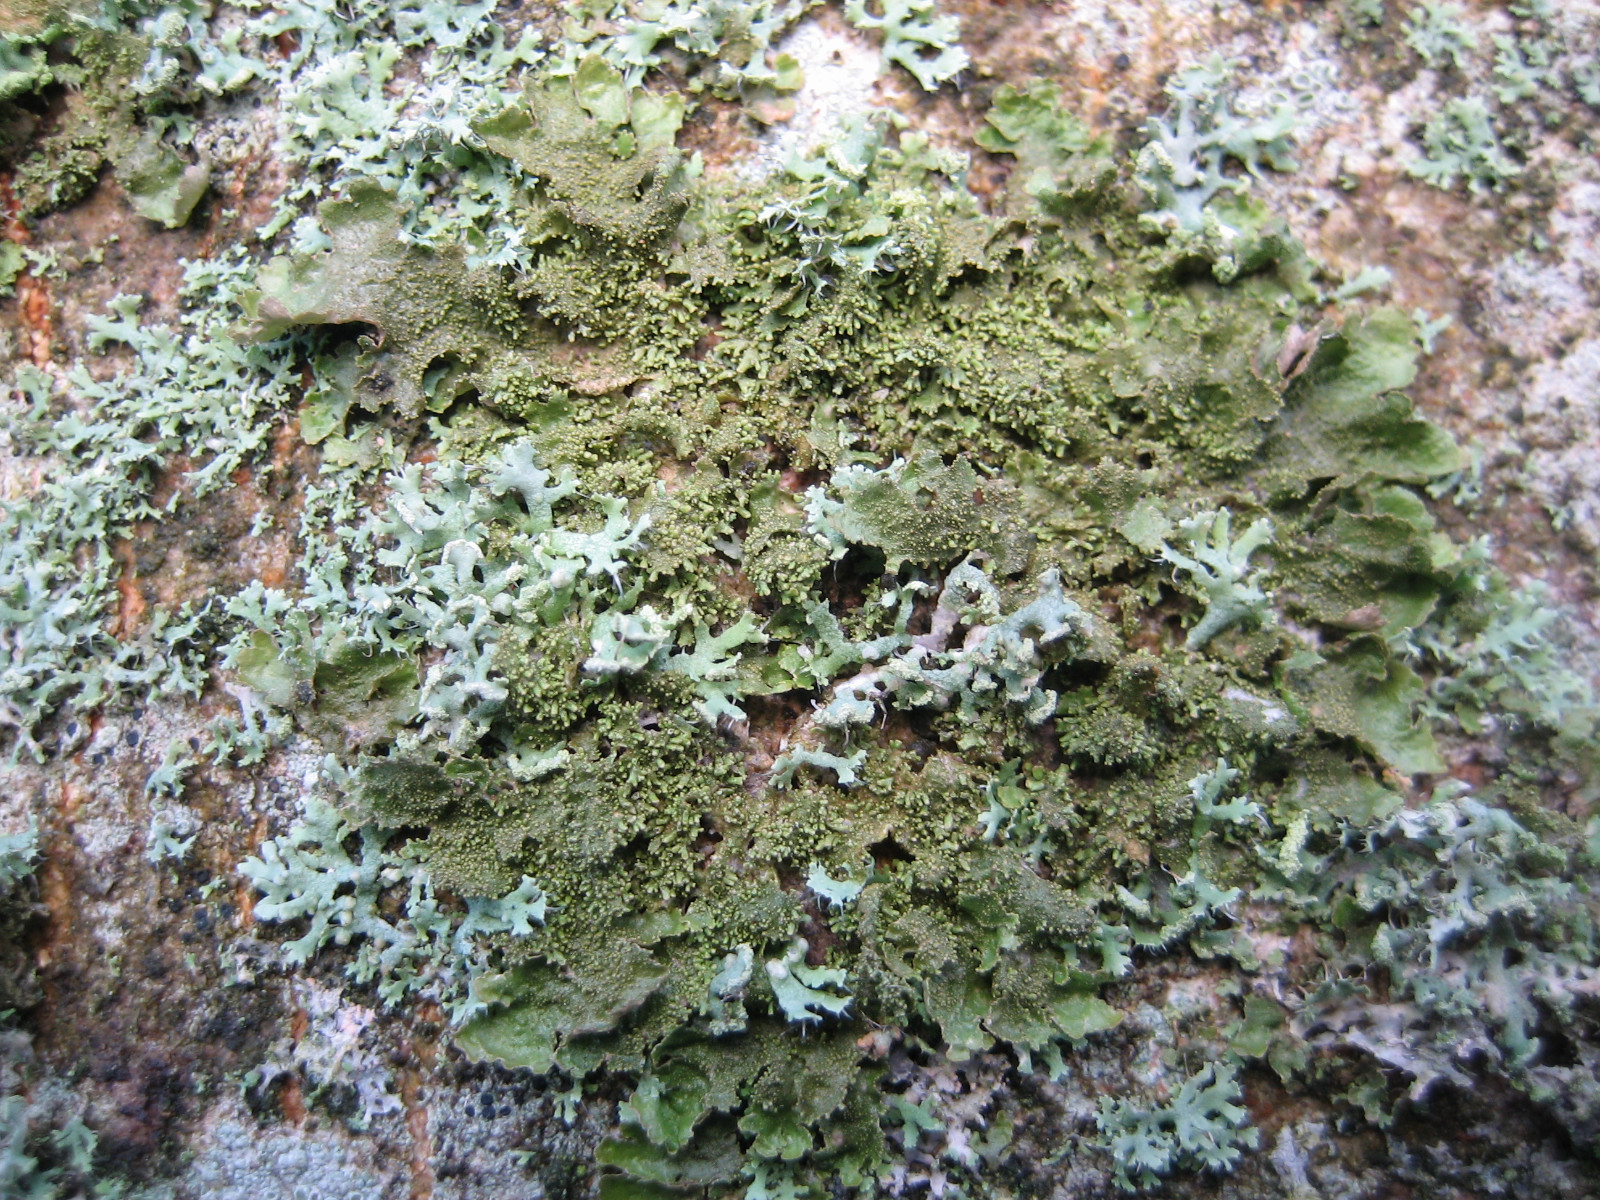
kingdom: Fungi
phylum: Ascomycota
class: Lecanoromycetes
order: Caliciales
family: Physciaceae
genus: Physcia
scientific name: Physcia tenella
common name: spæd rosetlav
